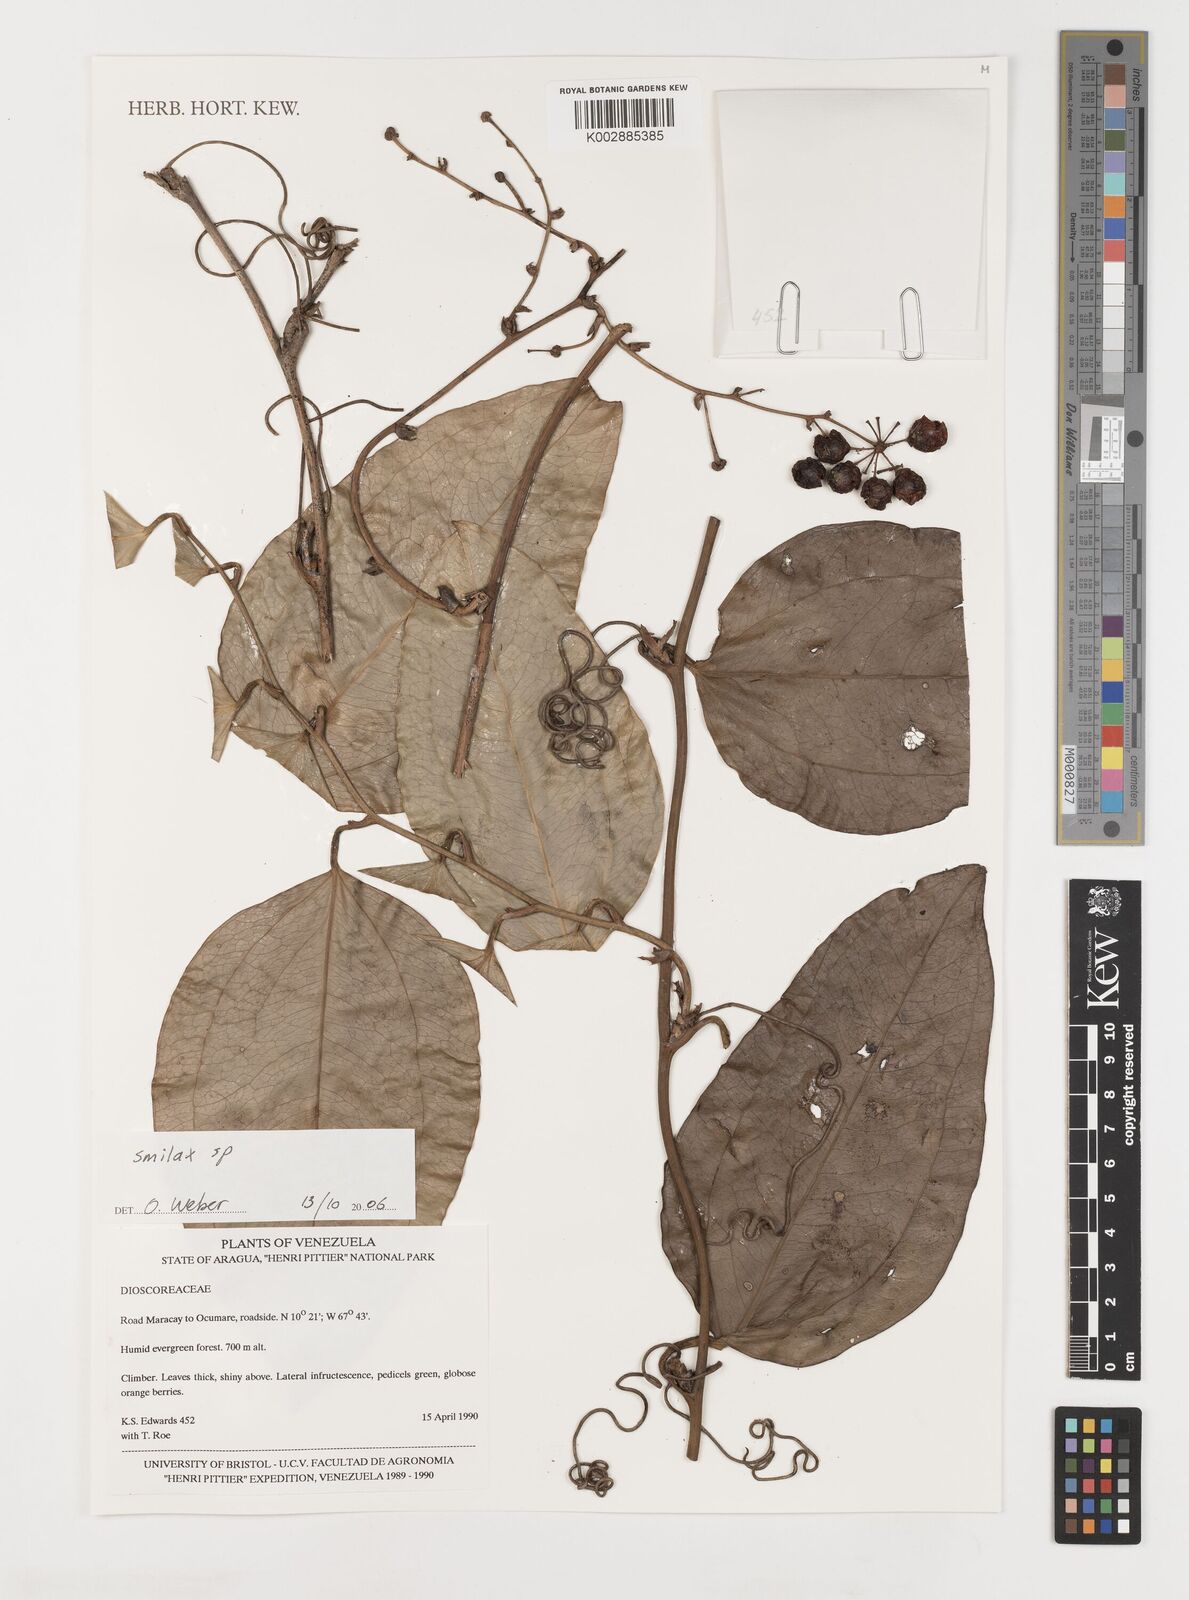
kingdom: Plantae
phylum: Tracheophyta
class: Liliopsida
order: Liliales
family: Smilacaceae
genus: Smilax
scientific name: Smilax
